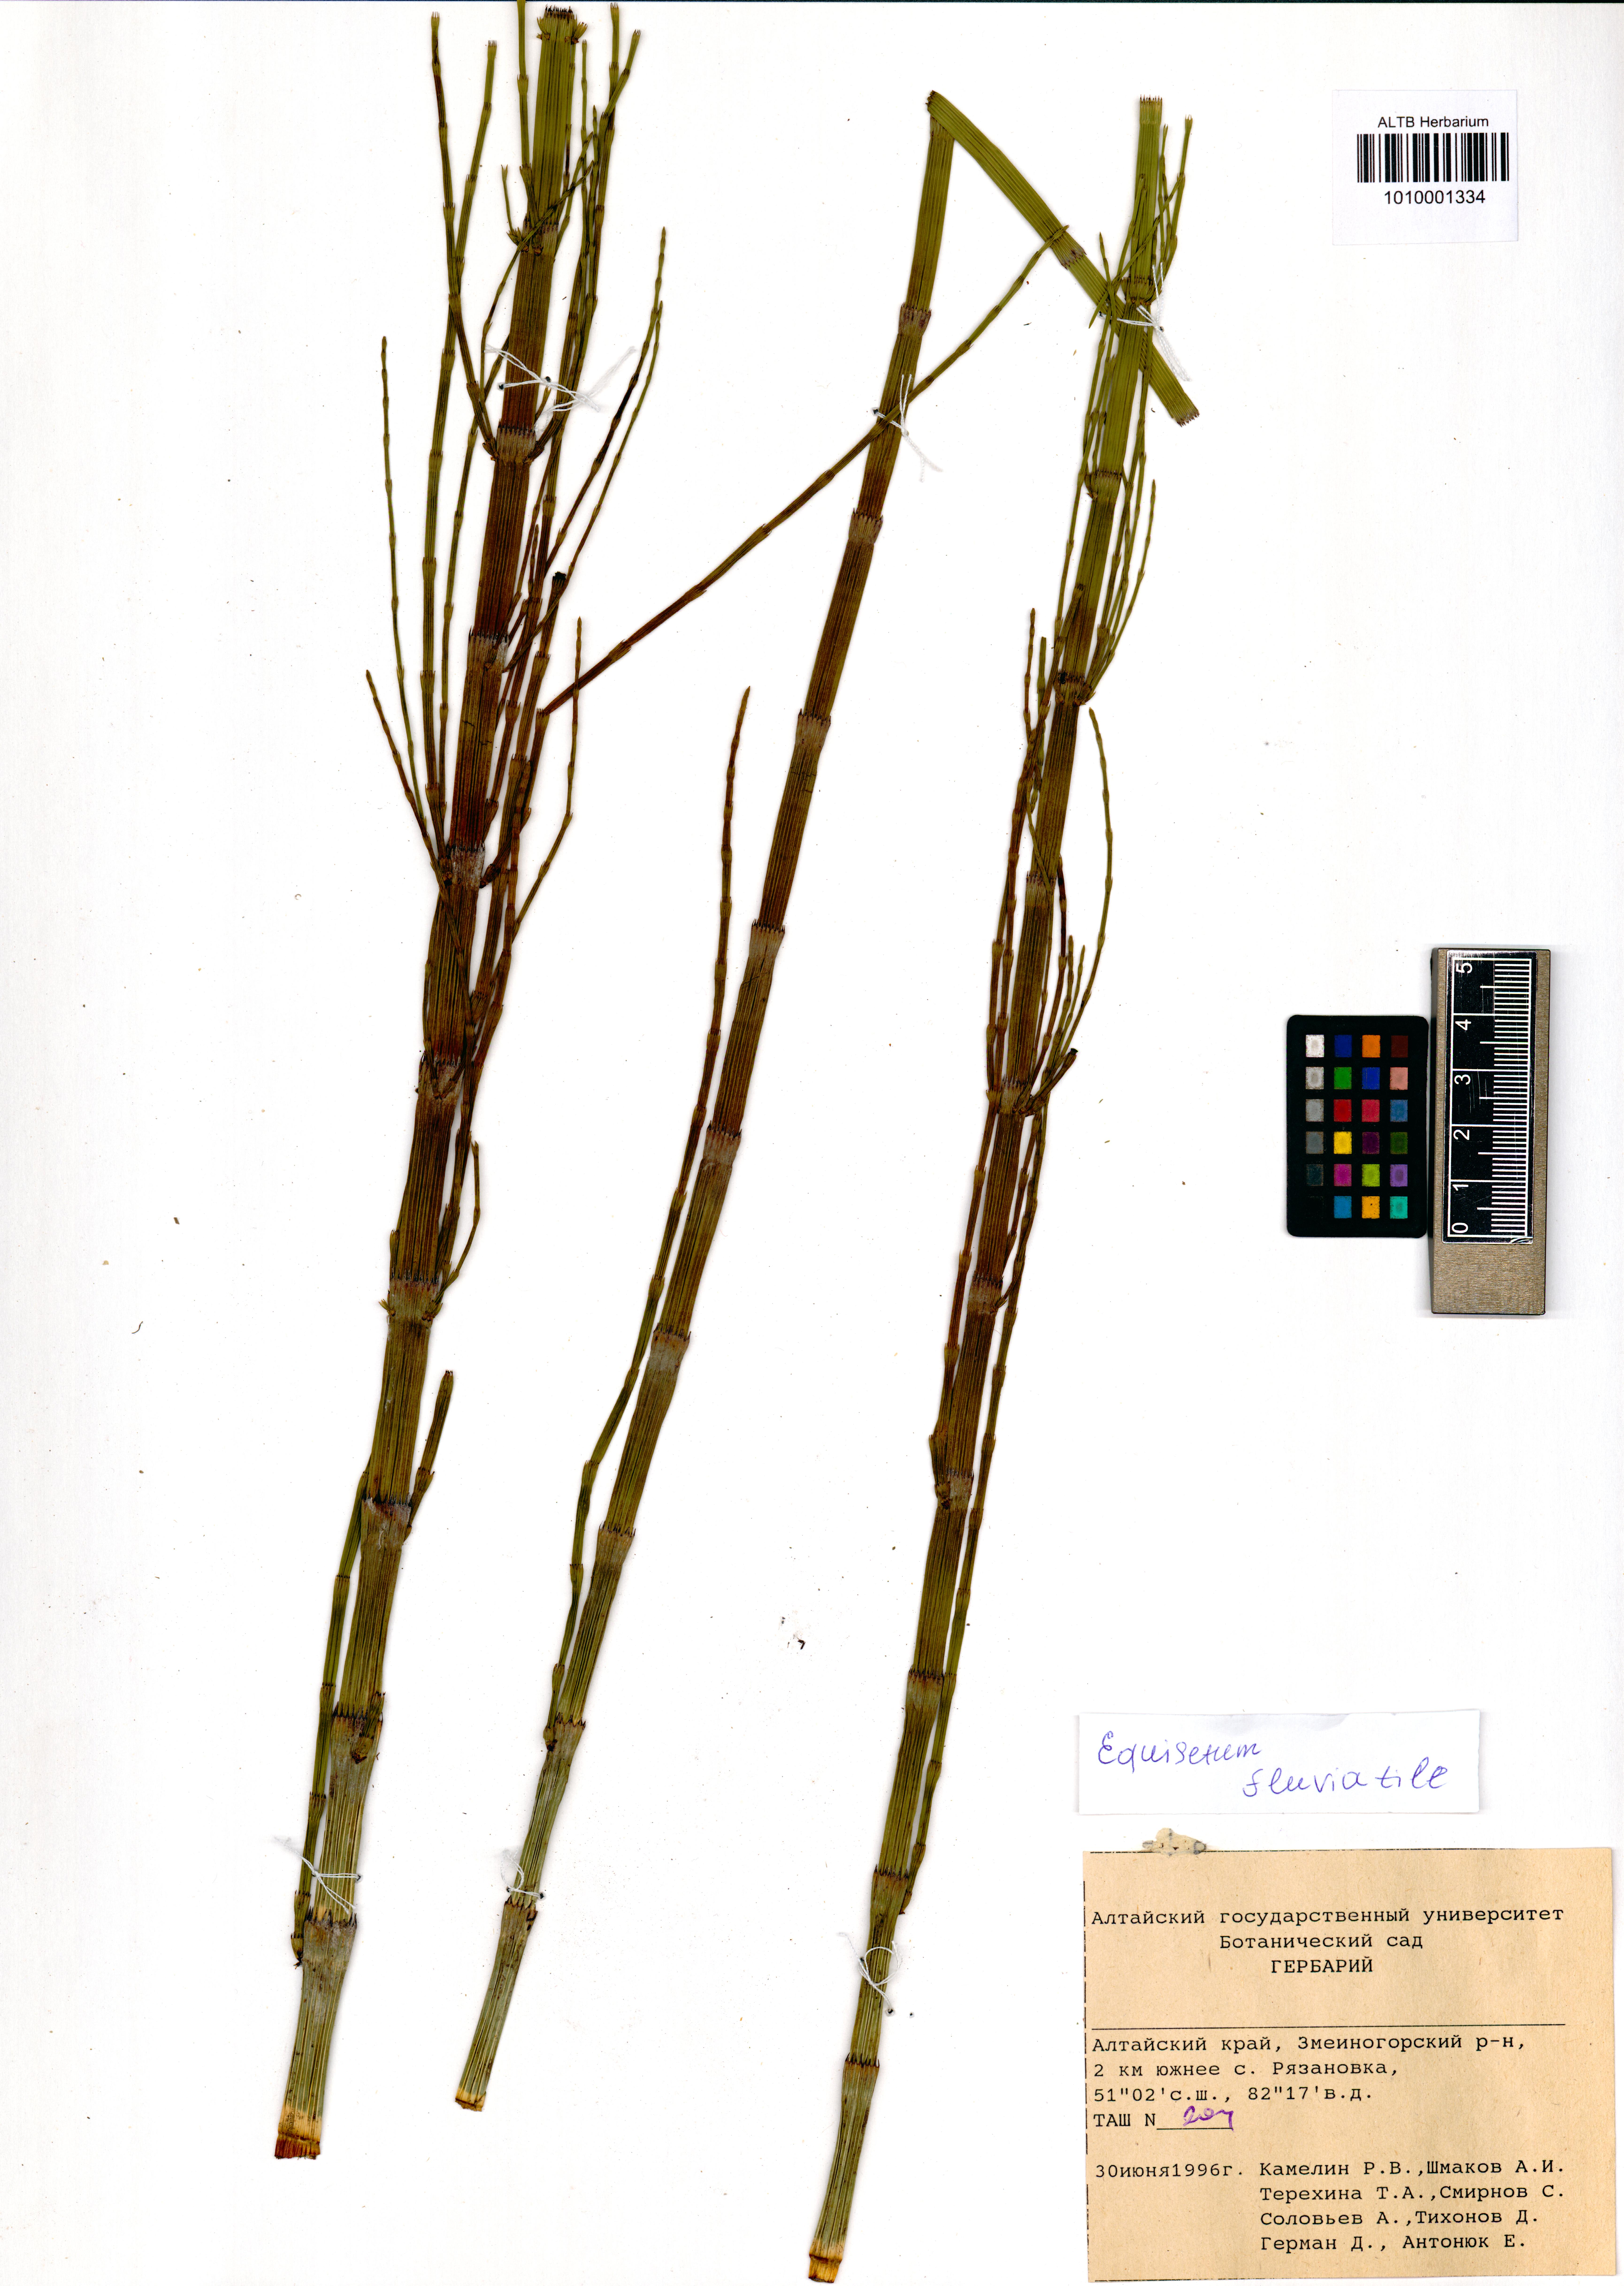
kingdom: Plantae
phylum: Tracheophyta
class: Polypodiopsida
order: Equisetales
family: Equisetaceae
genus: Equisetum
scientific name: Equisetum fluviatile
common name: Water horsetail
